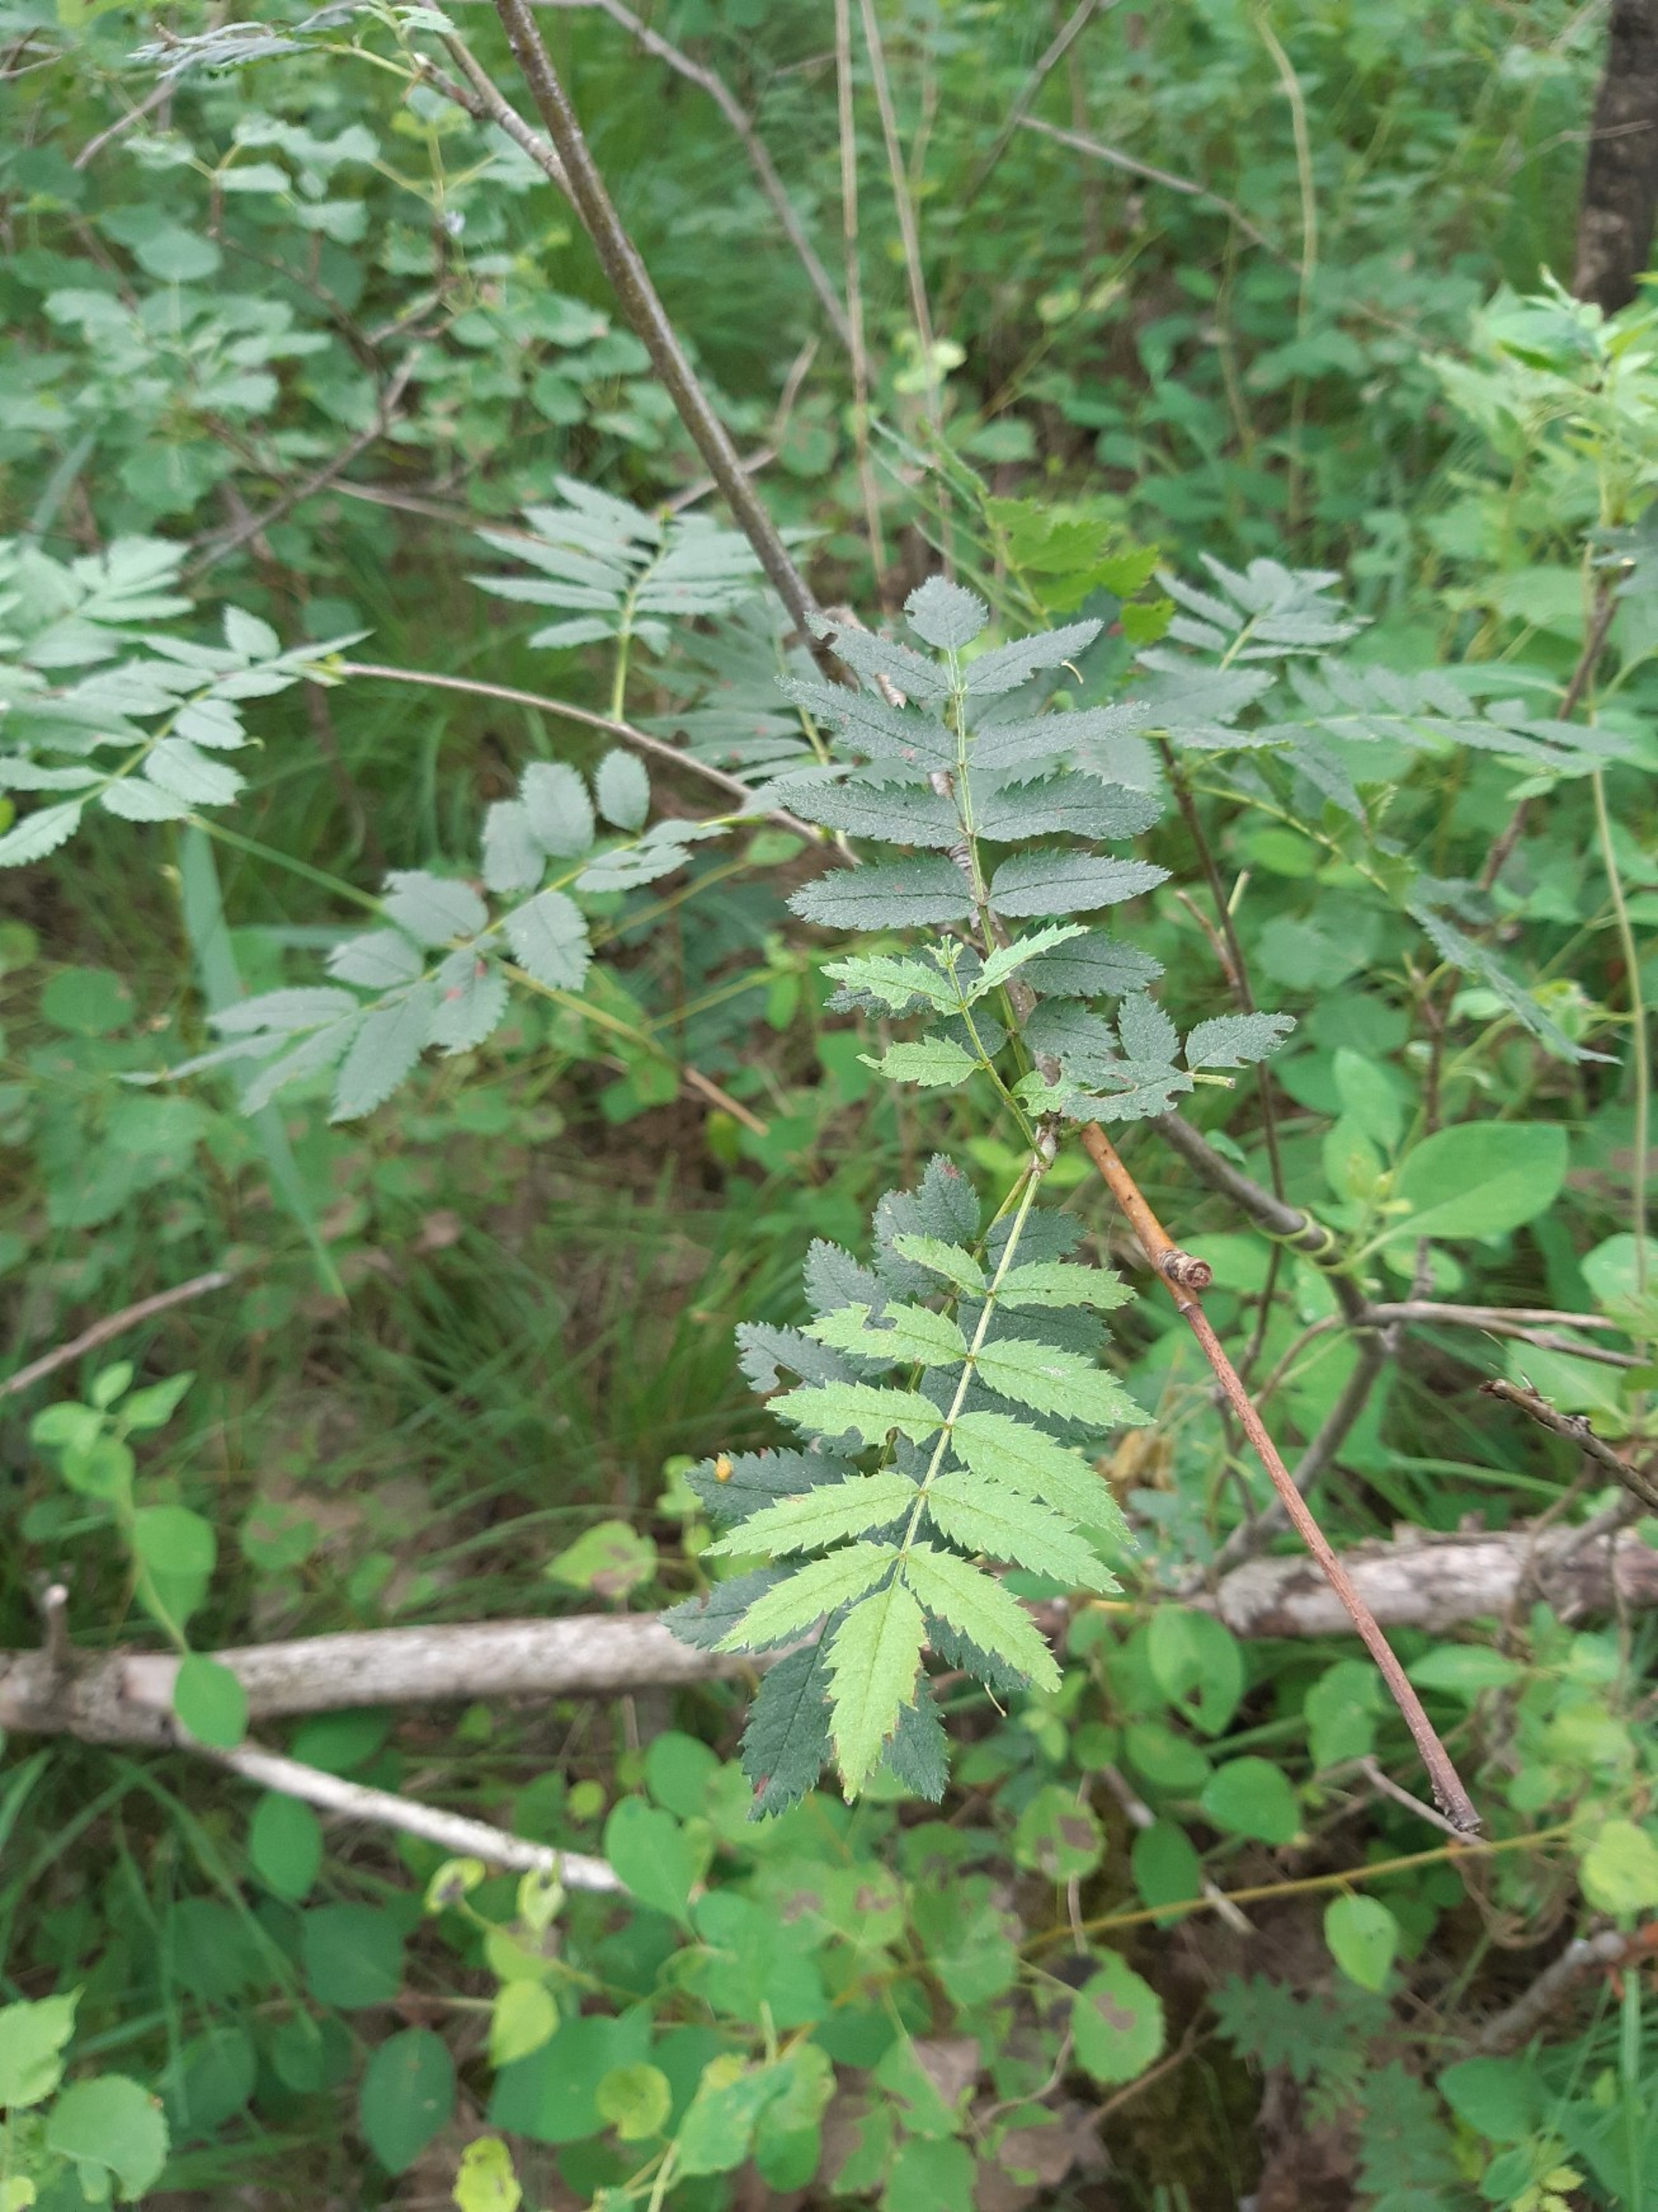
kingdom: Plantae
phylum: Tracheophyta
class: Magnoliopsida
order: Rosales
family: Rosaceae
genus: Sorbus
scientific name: Sorbus aucuparia
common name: Almindelig røn
